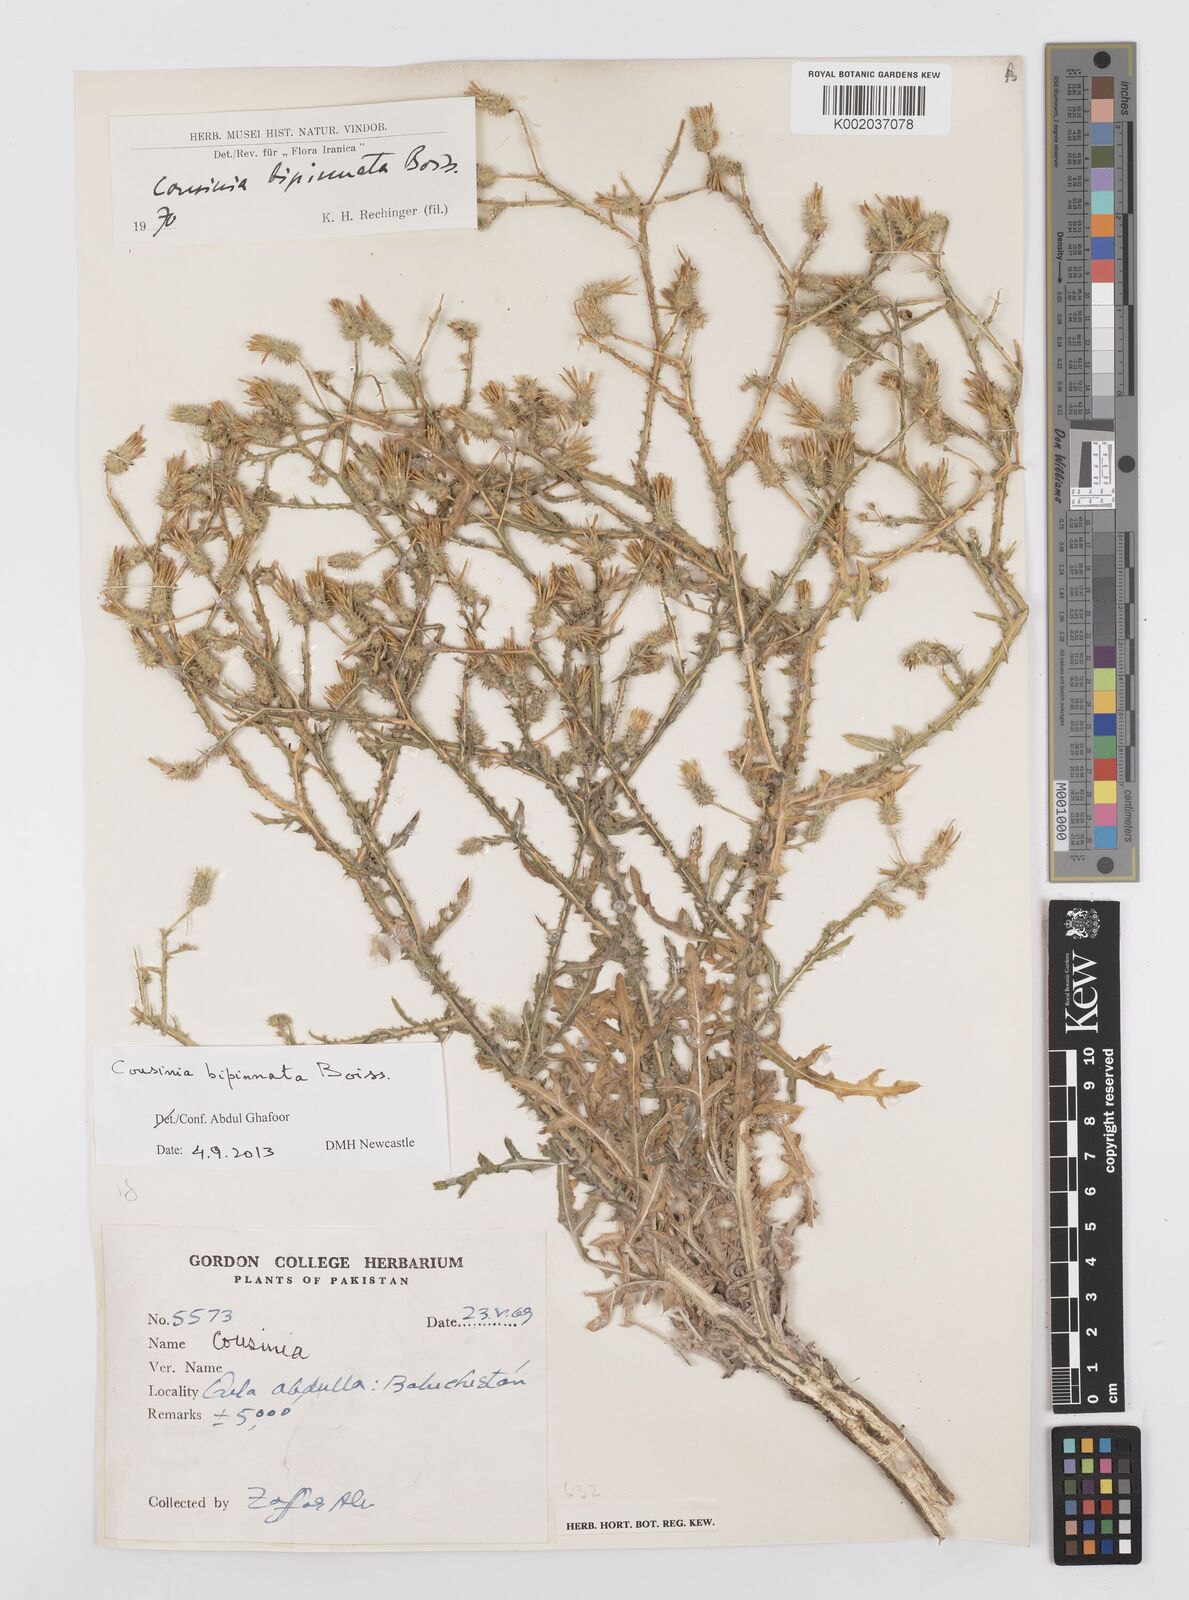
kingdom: Plantae
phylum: Tracheophyta
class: Magnoliopsida
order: Asterales
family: Asteraceae
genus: Cousinia
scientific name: Cousinia bipinnata
